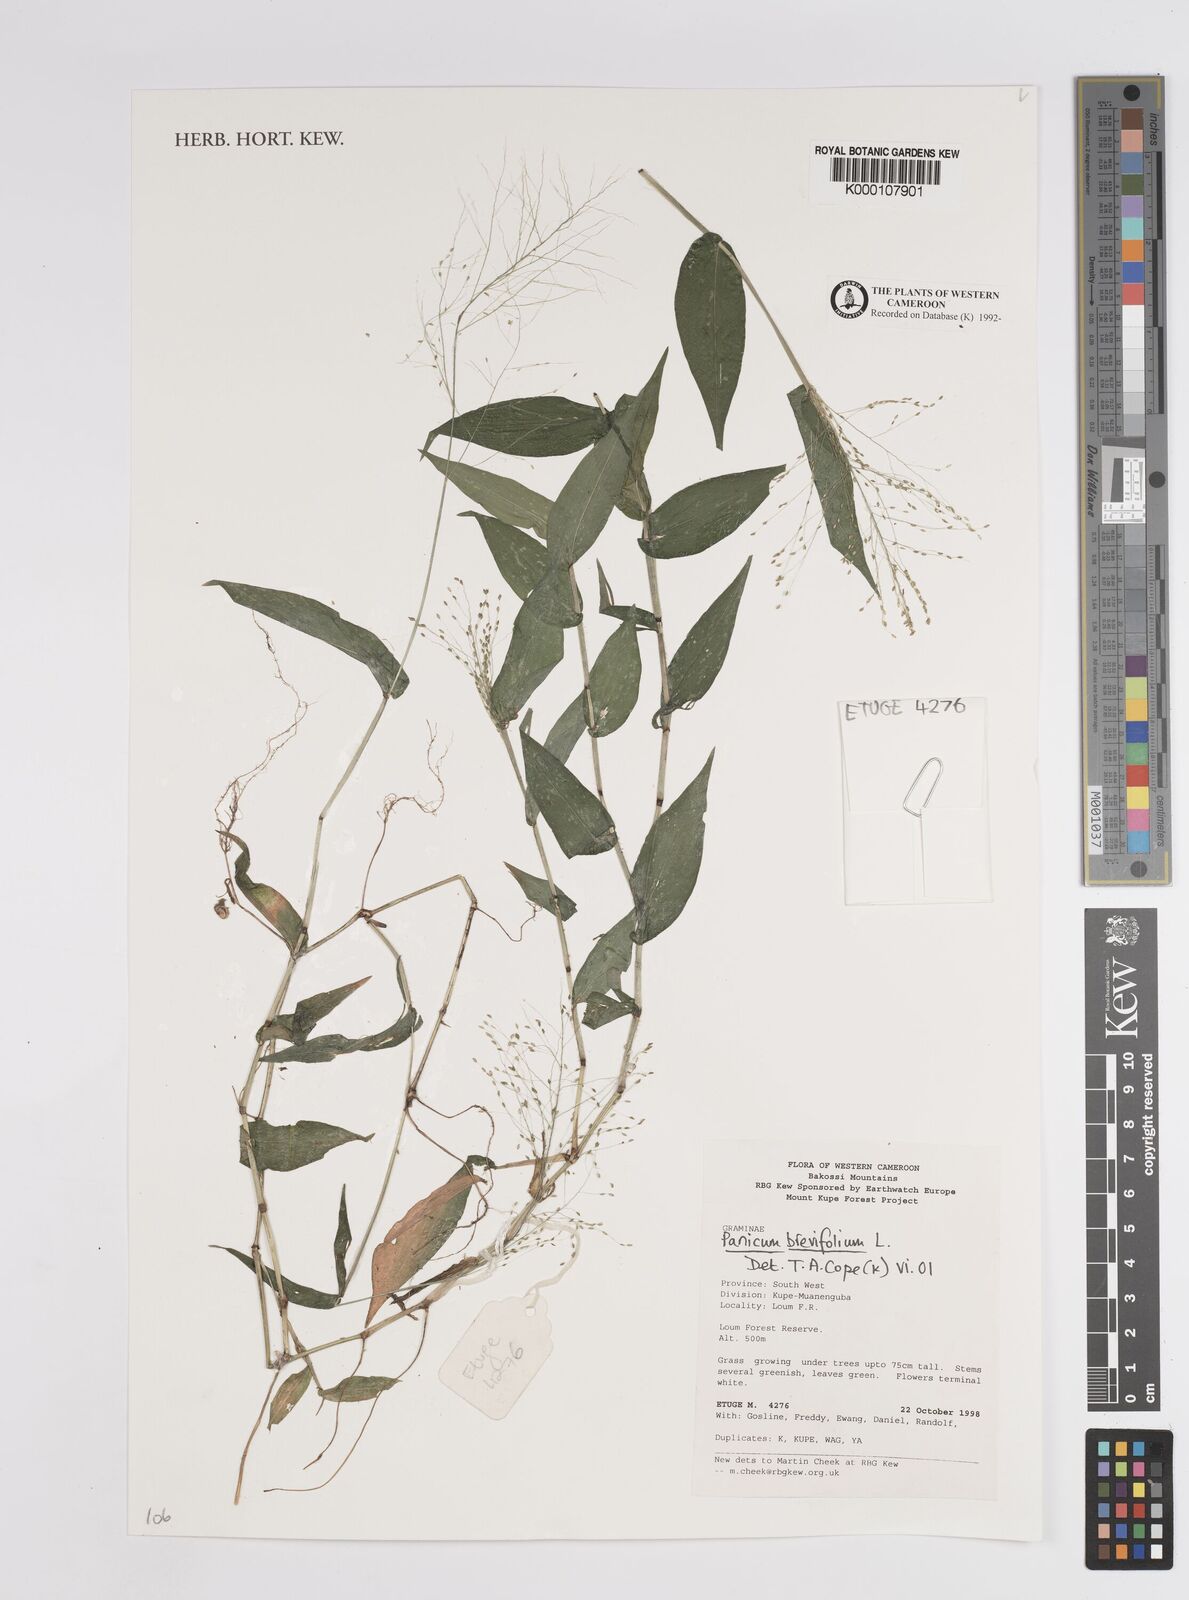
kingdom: Plantae
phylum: Tracheophyta
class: Liliopsida
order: Poales
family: Poaceae
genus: Panicum
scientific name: Panicum brevifolium
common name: Shortleaf panic grass
